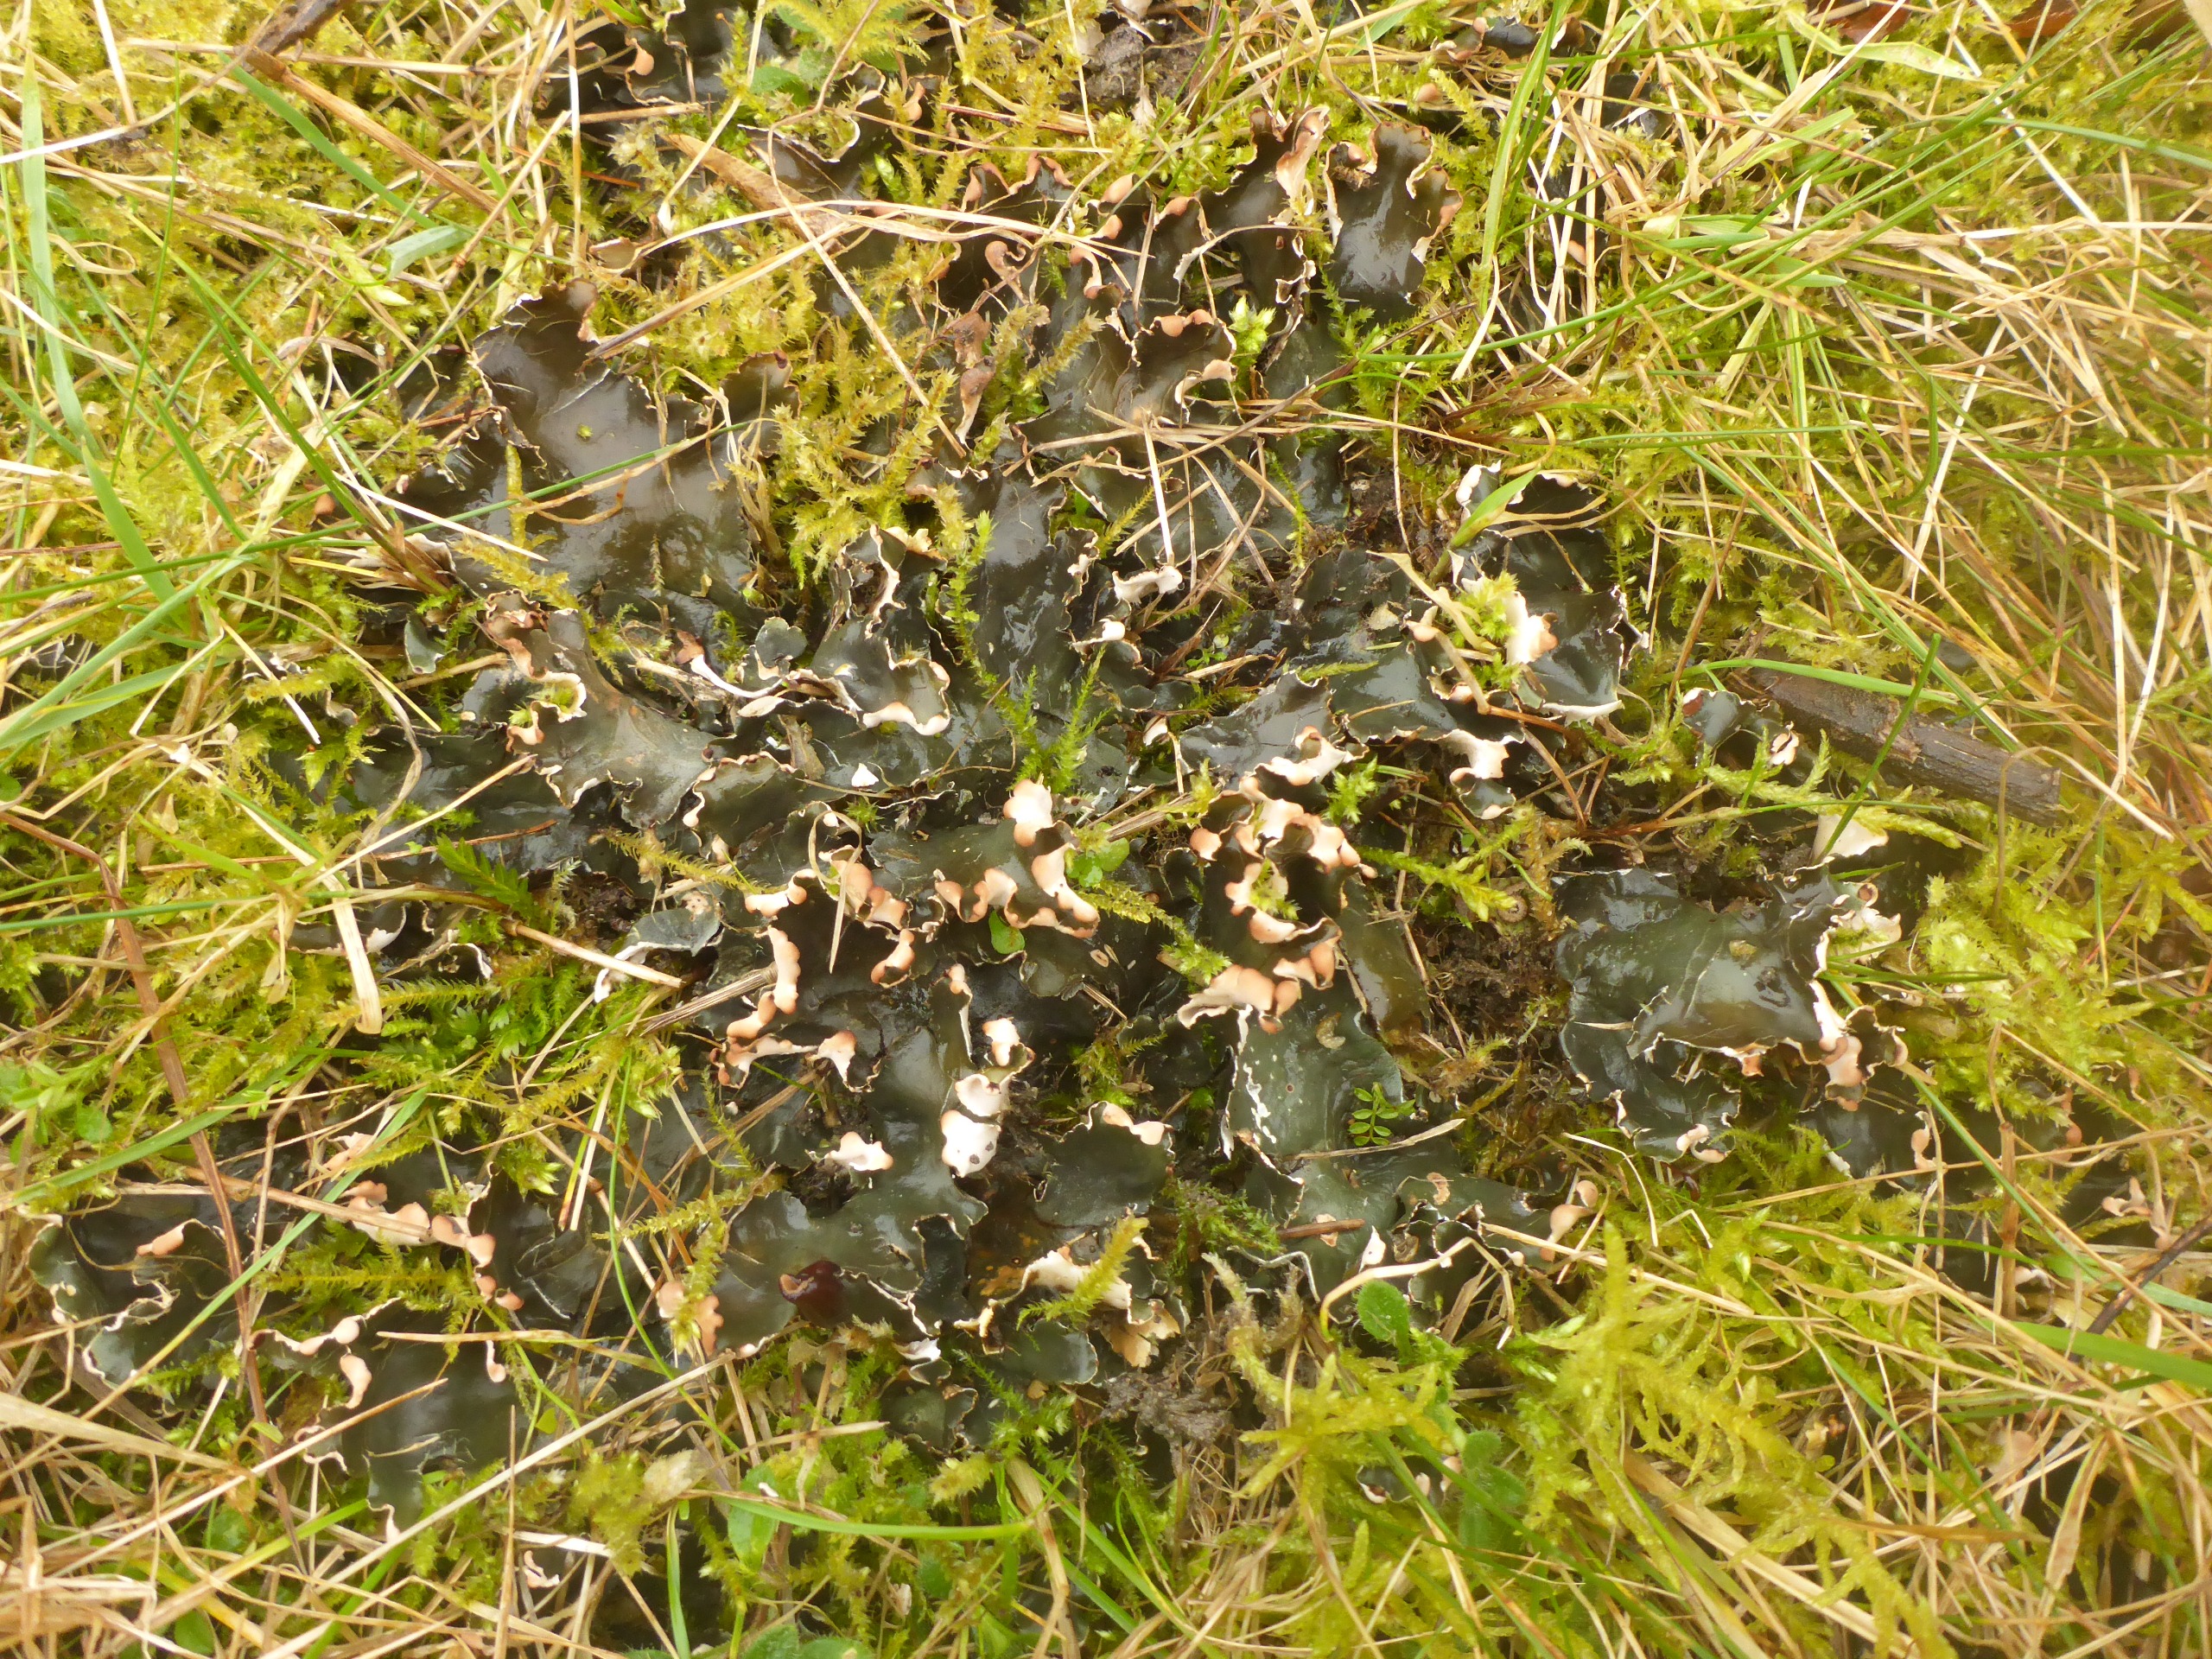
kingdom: Fungi
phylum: Ascomycota
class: Lecanoromycetes
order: Peltigerales
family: Peltigeraceae
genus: Peltigera
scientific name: Peltigera neckeri
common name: Glinsende skjoldlav
